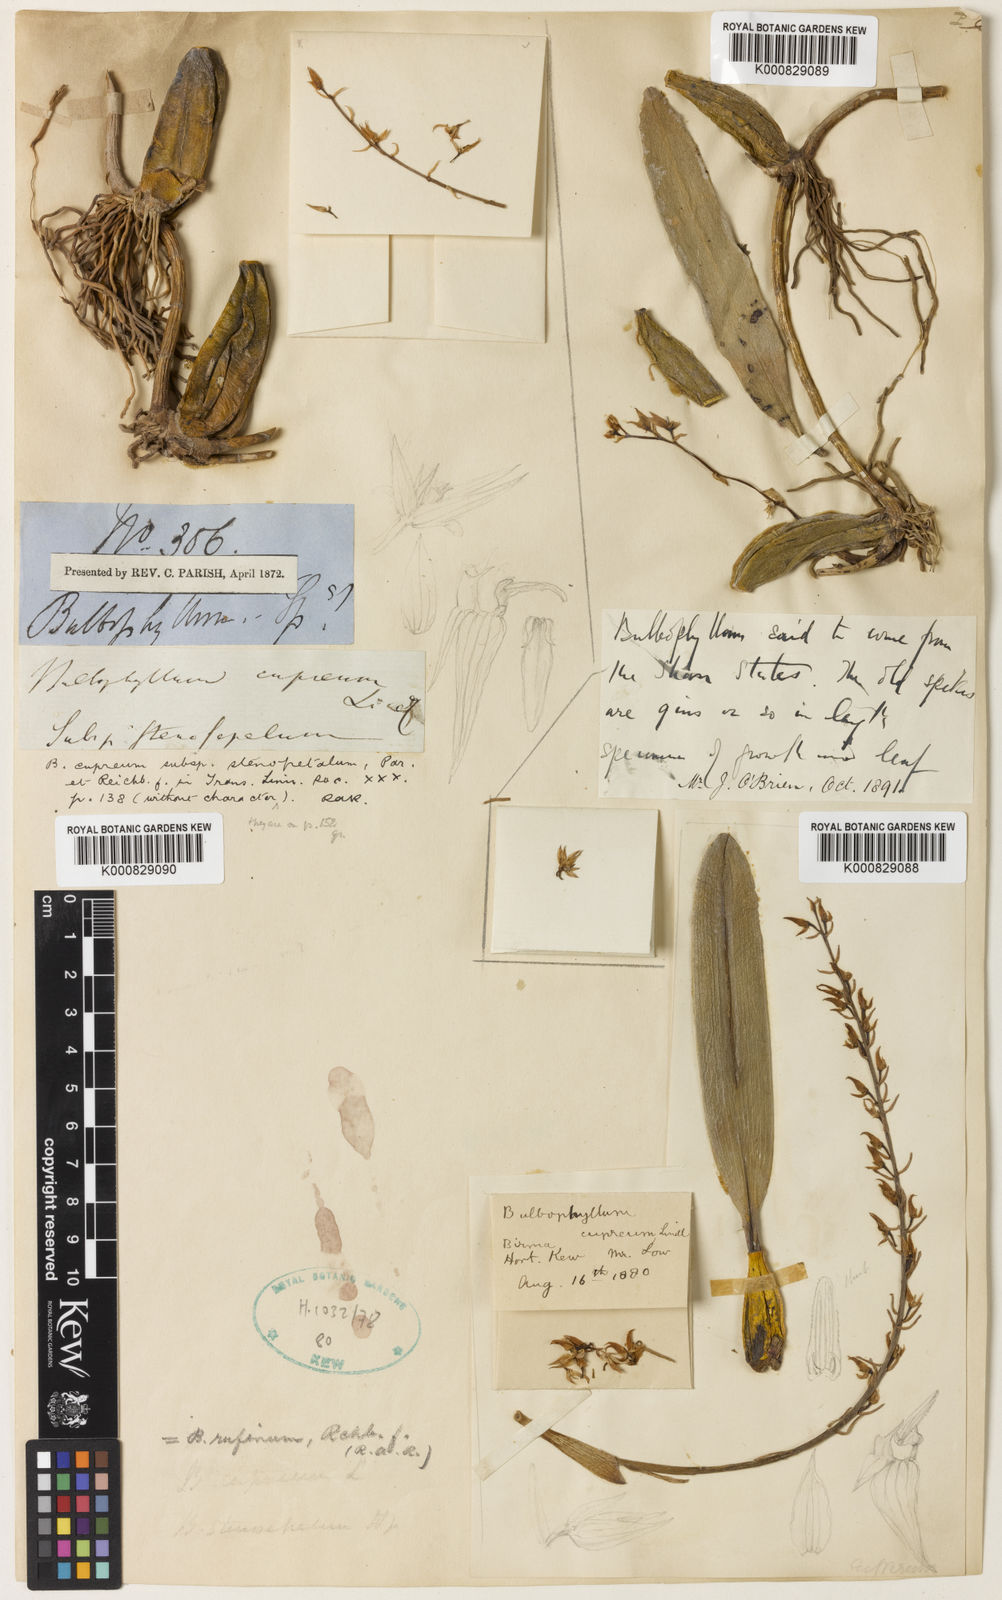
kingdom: Plantae
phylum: Tracheophyta
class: Liliopsida
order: Asparagales
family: Orchidaceae
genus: Bulbophyllum
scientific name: Bulbophyllum sandersonii
